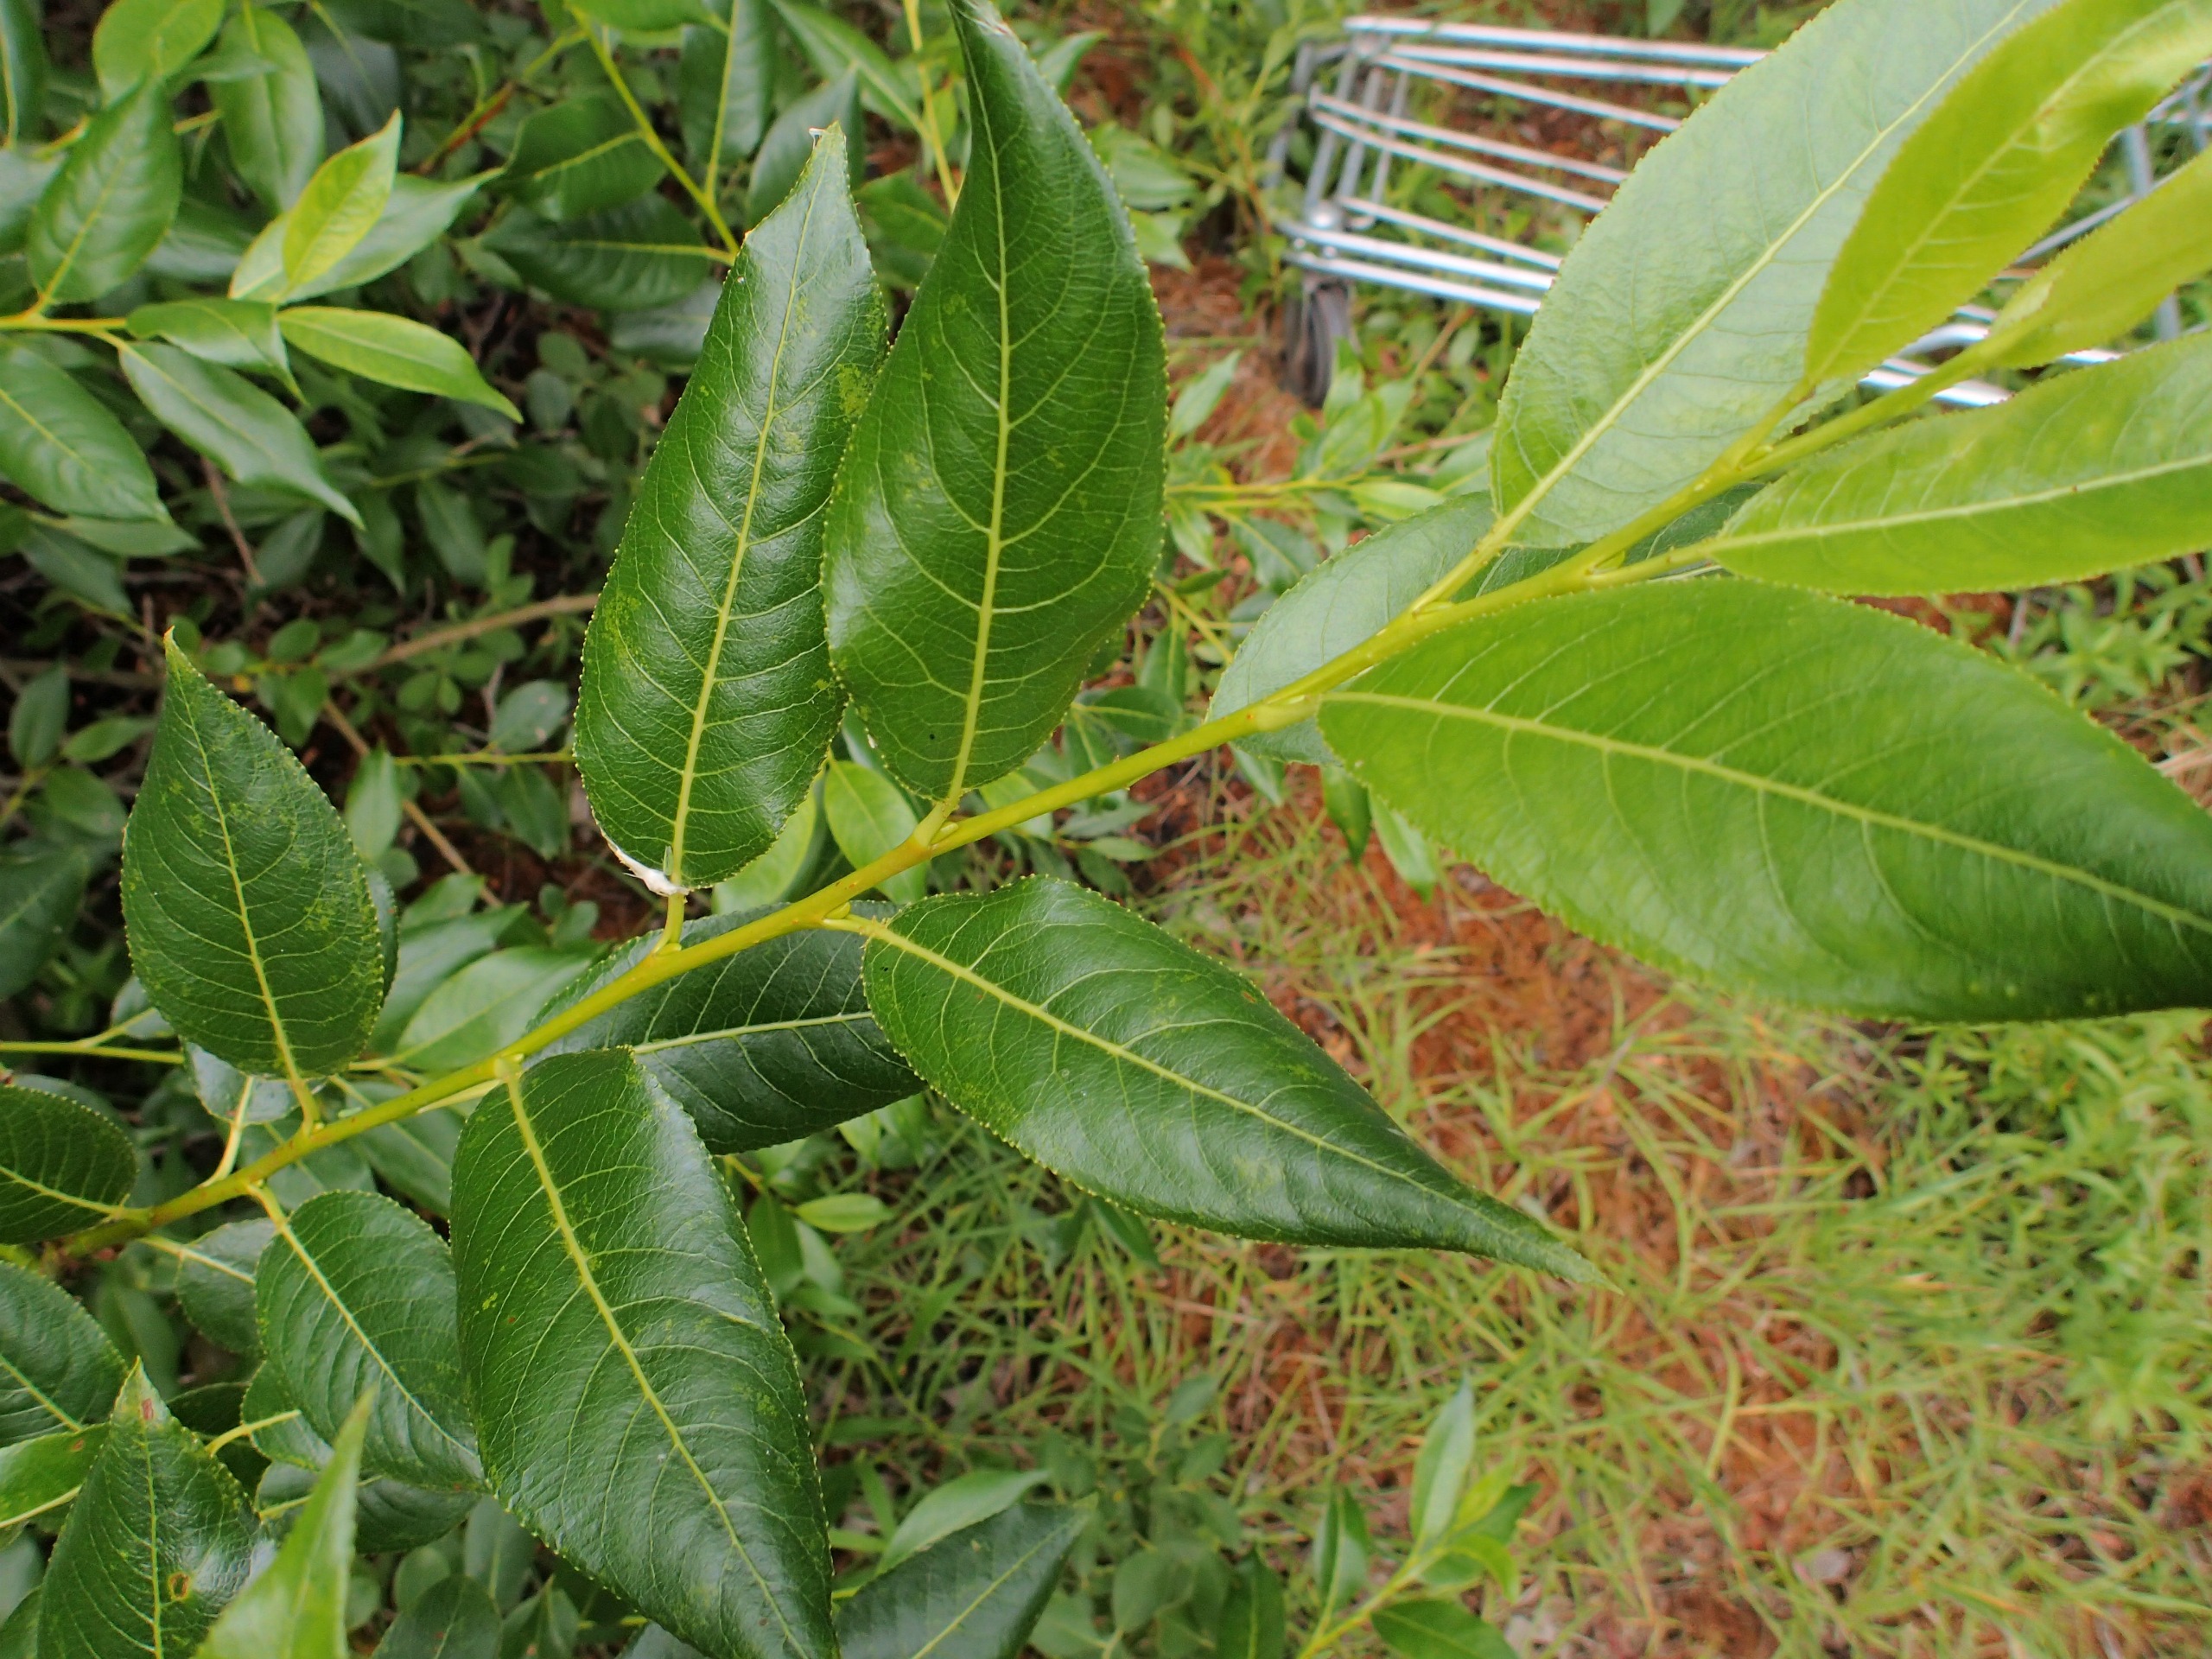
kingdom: Plantae
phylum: Tracheophyta
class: Magnoliopsida
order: Malpighiales
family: Salicaceae
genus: Salix
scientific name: Salix pentandra
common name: Femhannet pil
